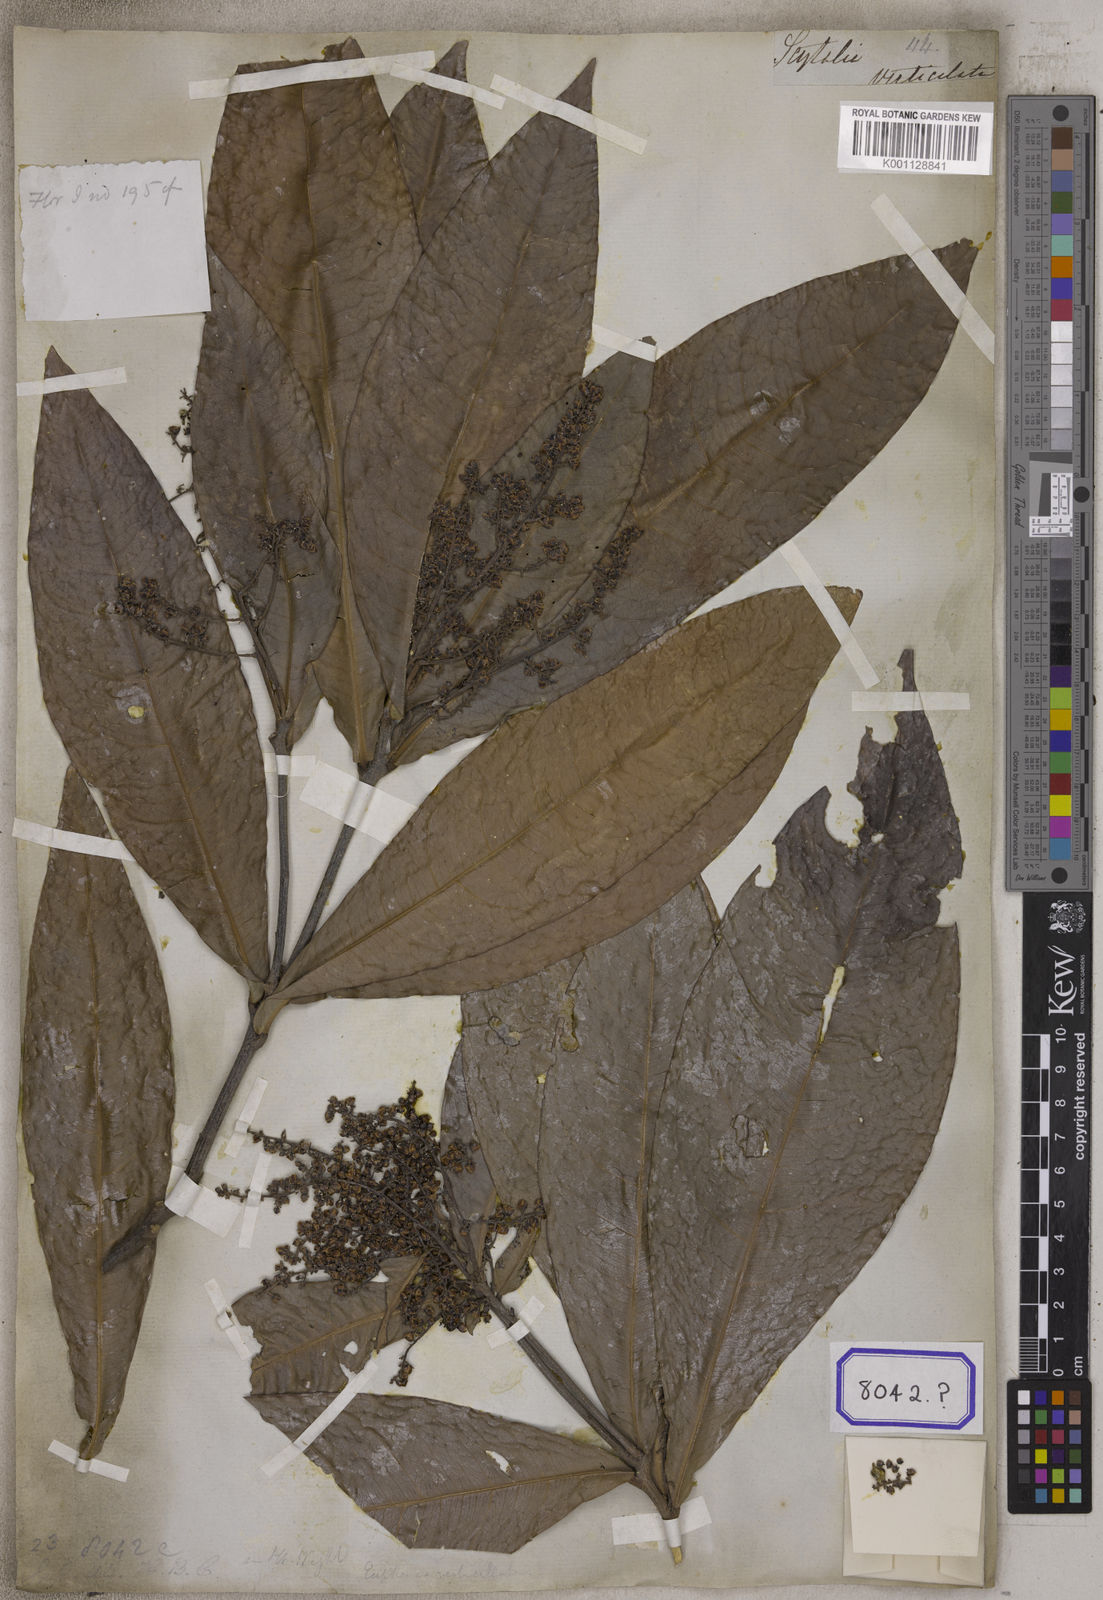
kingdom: Plantae
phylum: Tracheophyta
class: Magnoliopsida
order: Sapindales
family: Sapindaceae
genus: Lepisanthes
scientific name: Lepisanthes senegalensis
